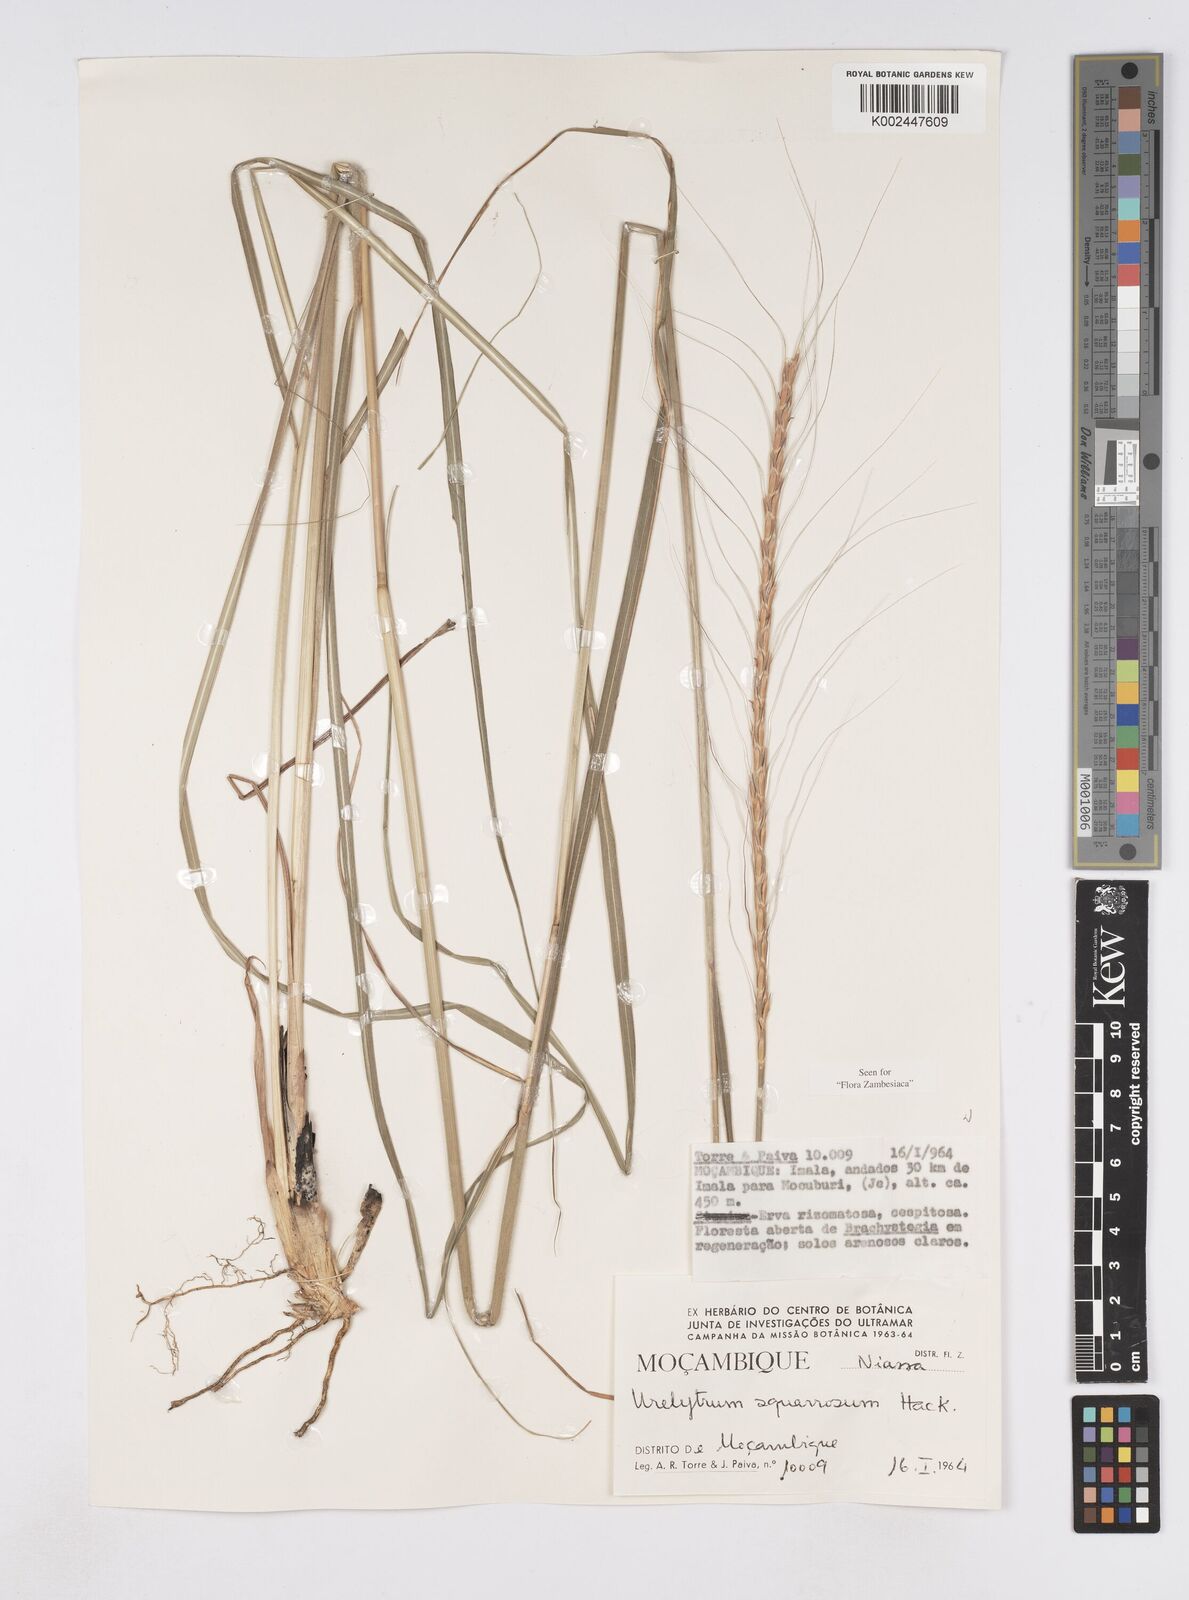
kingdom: Plantae
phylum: Tracheophyta
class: Liliopsida
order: Poales
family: Poaceae
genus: Urelytrum
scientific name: Urelytrum agropyroides
